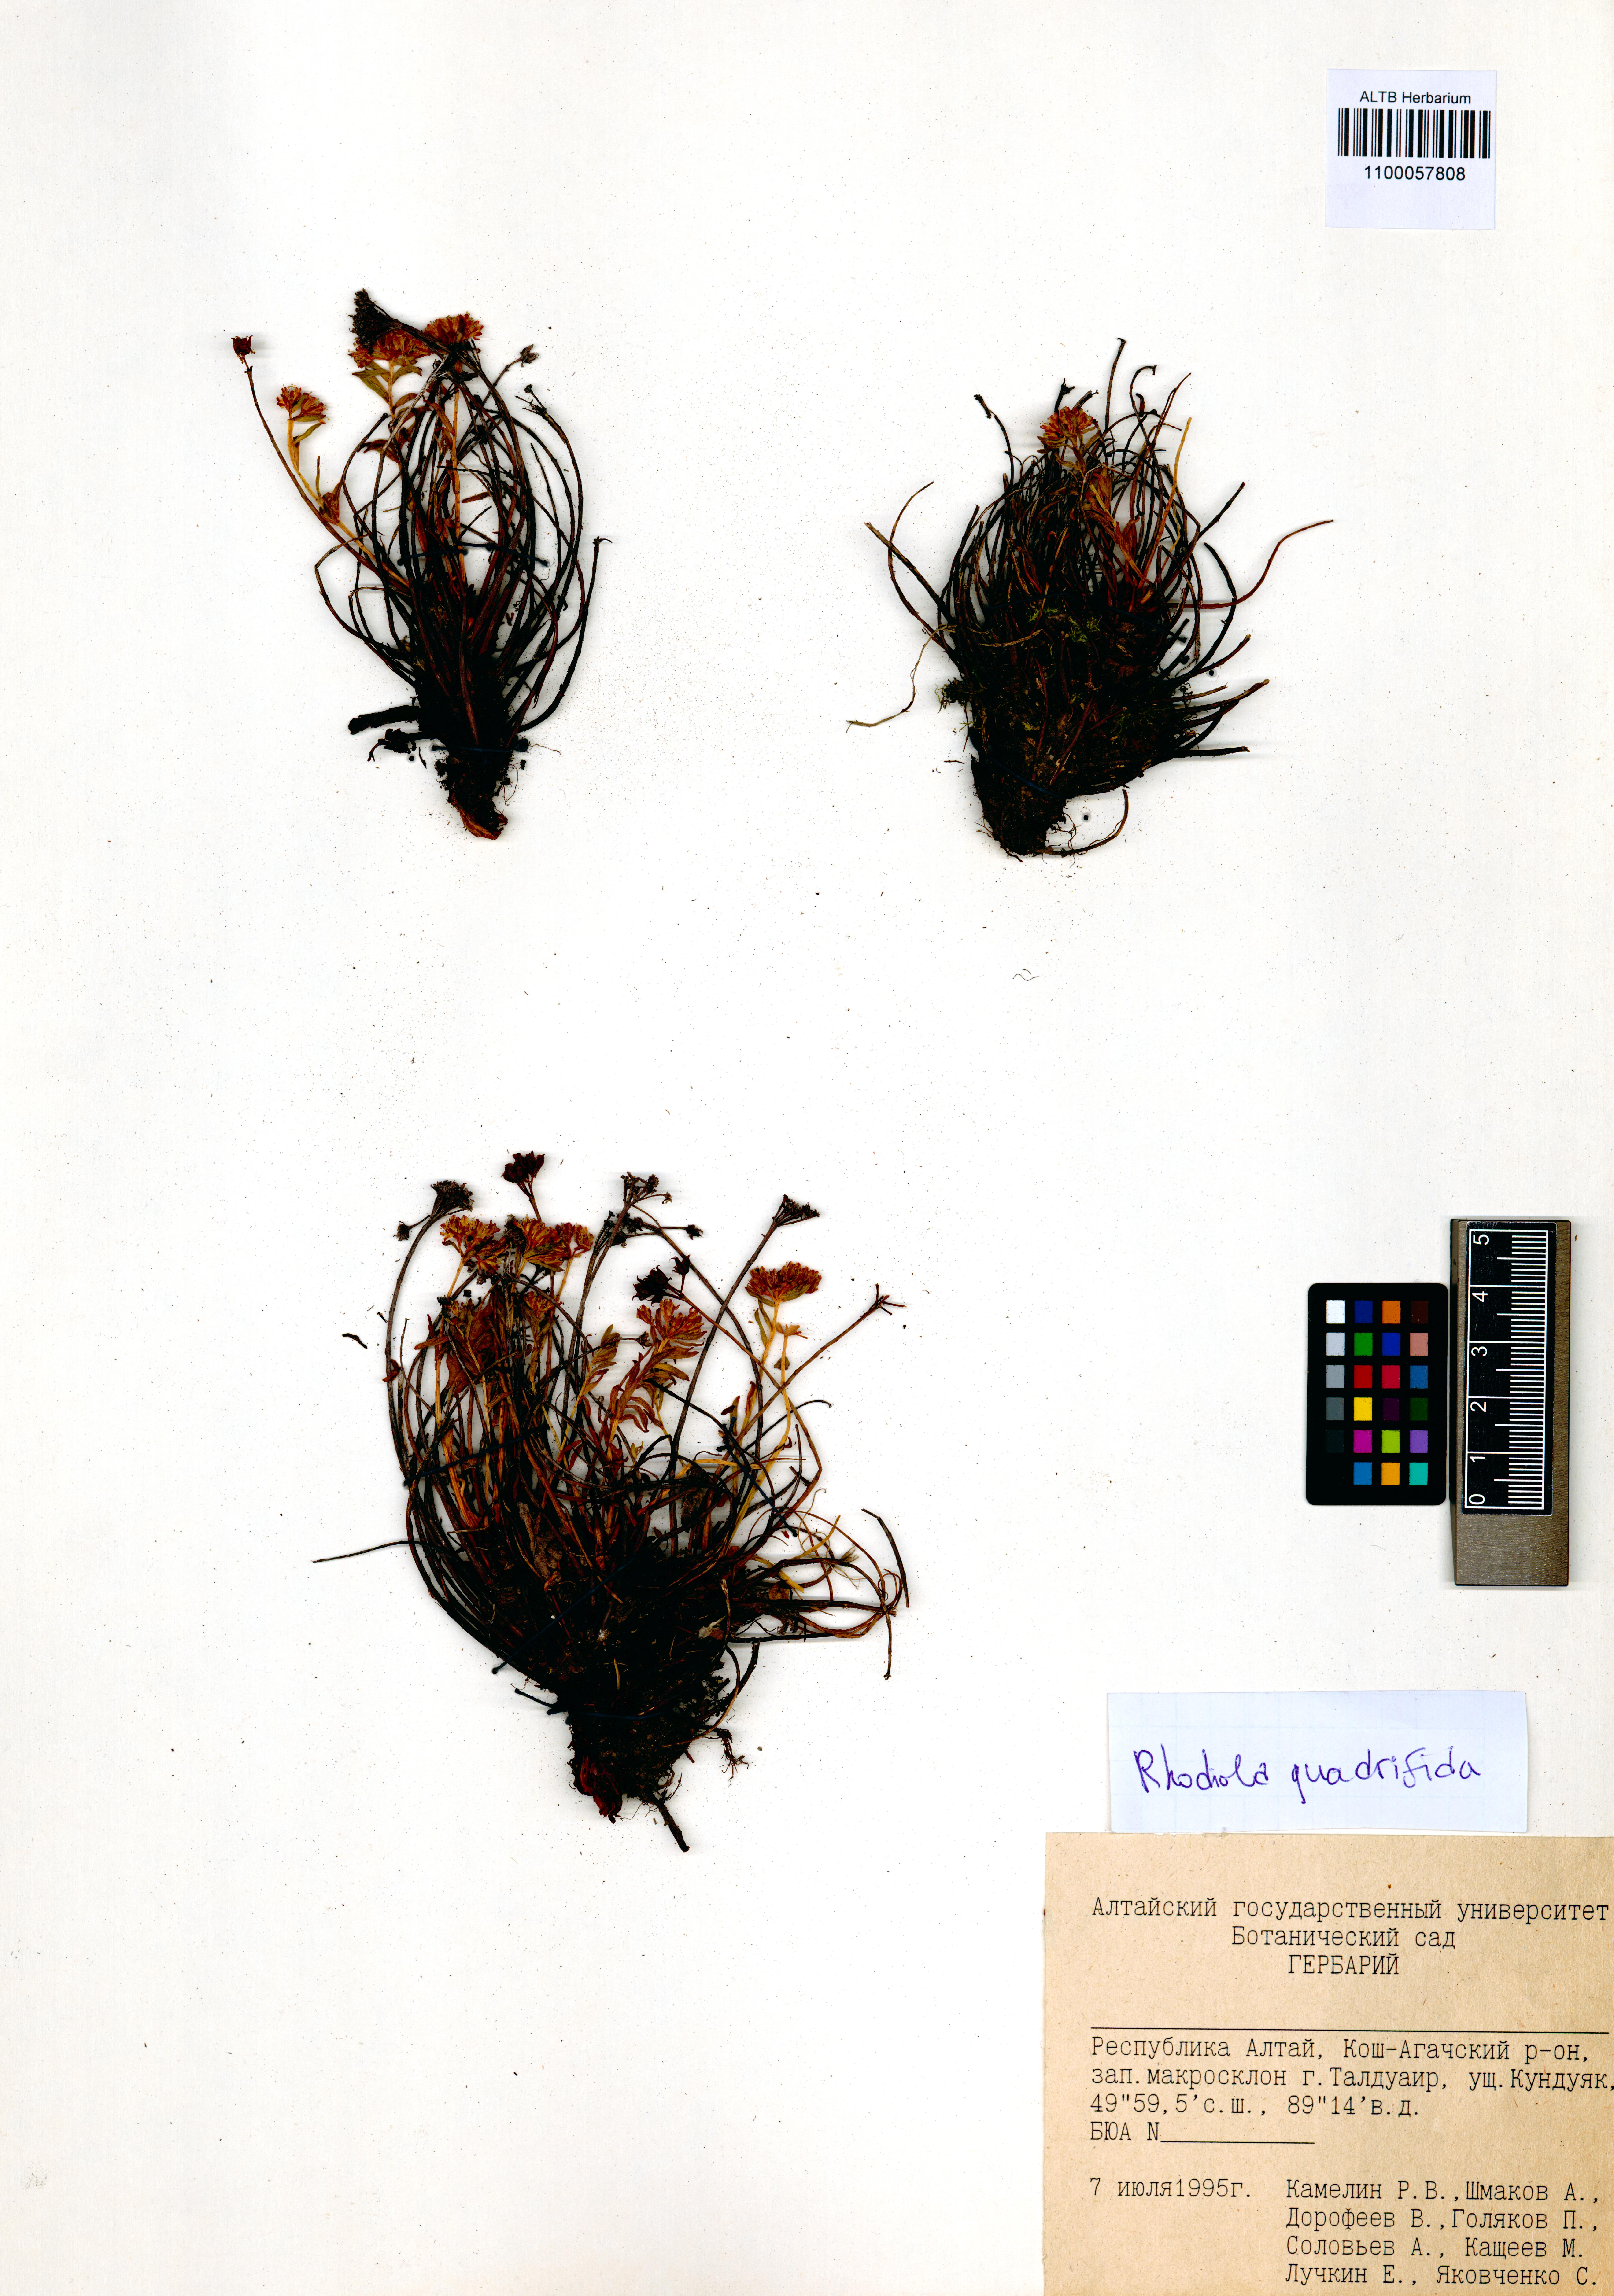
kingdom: Plantae
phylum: Tracheophyta
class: Magnoliopsida
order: Saxifragales
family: Crassulaceae
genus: Rhodiola
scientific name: Rhodiola quadrifida
